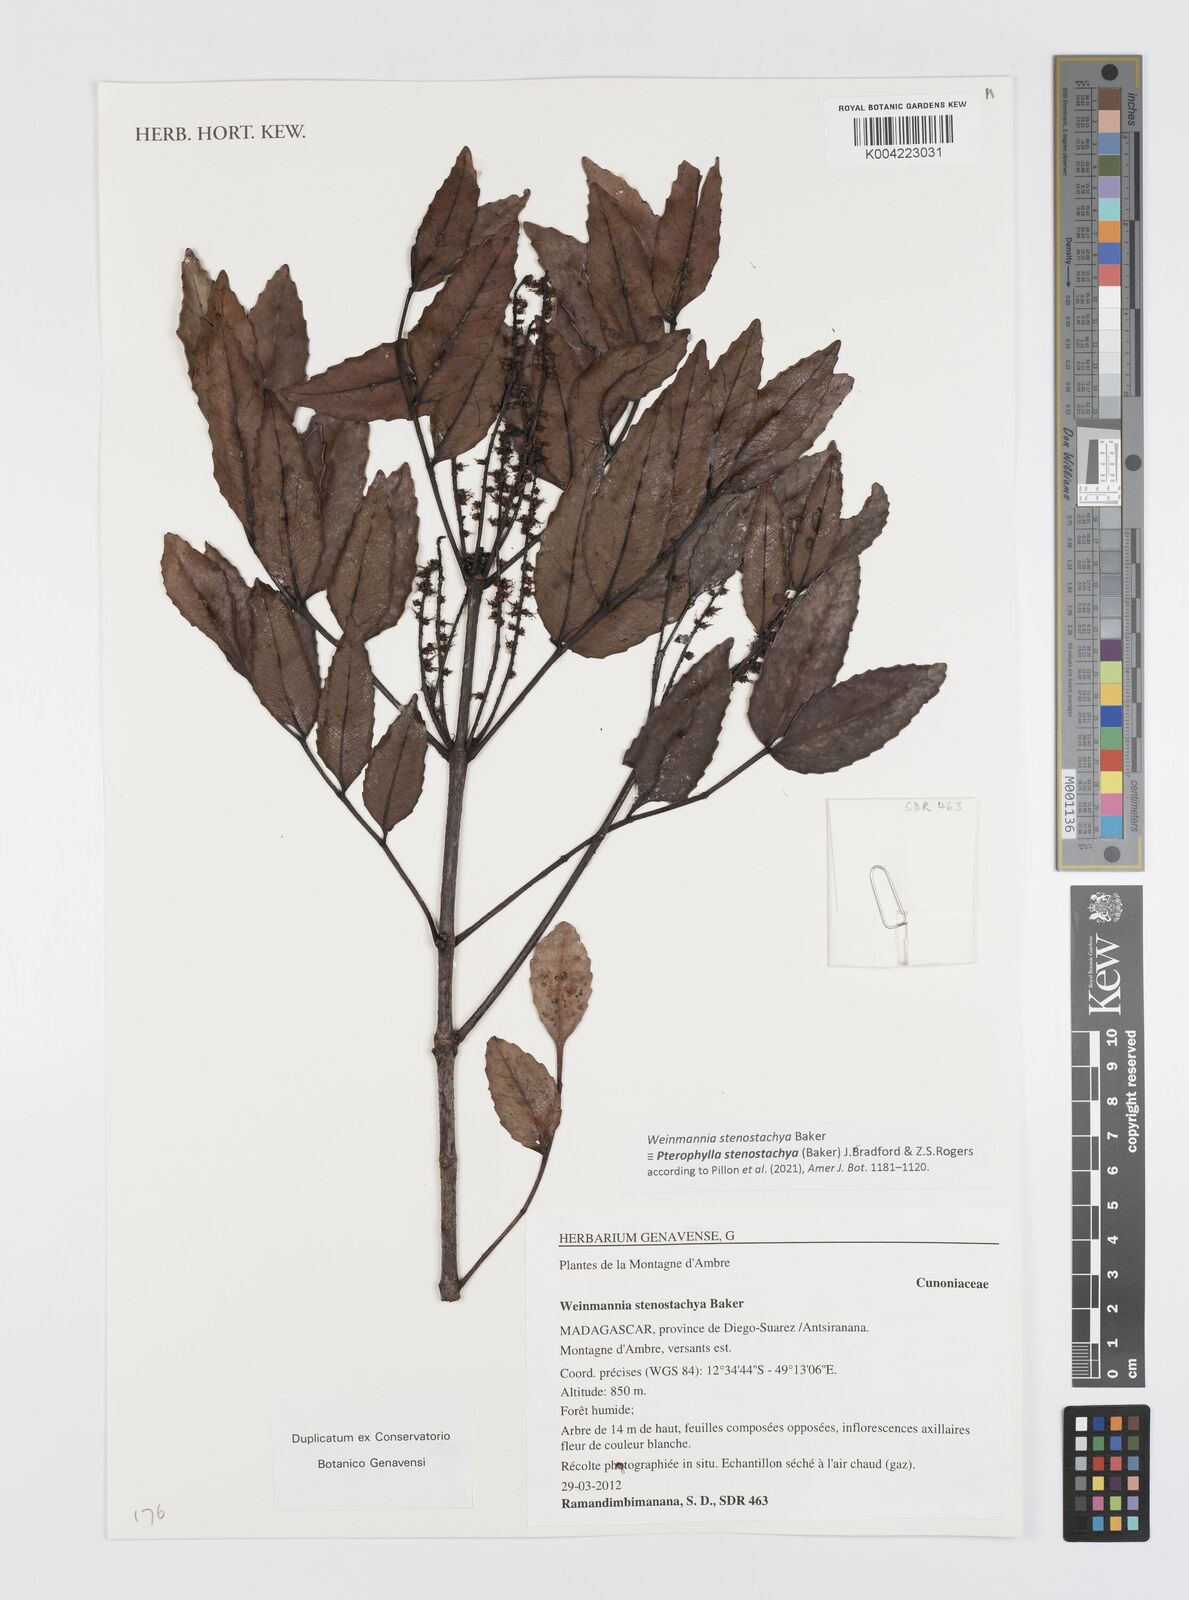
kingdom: Plantae
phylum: Tracheophyta
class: Magnoliopsida
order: Oxalidales
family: Cunoniaceae
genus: Pterophylla
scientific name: Pterophylla stenostachya
